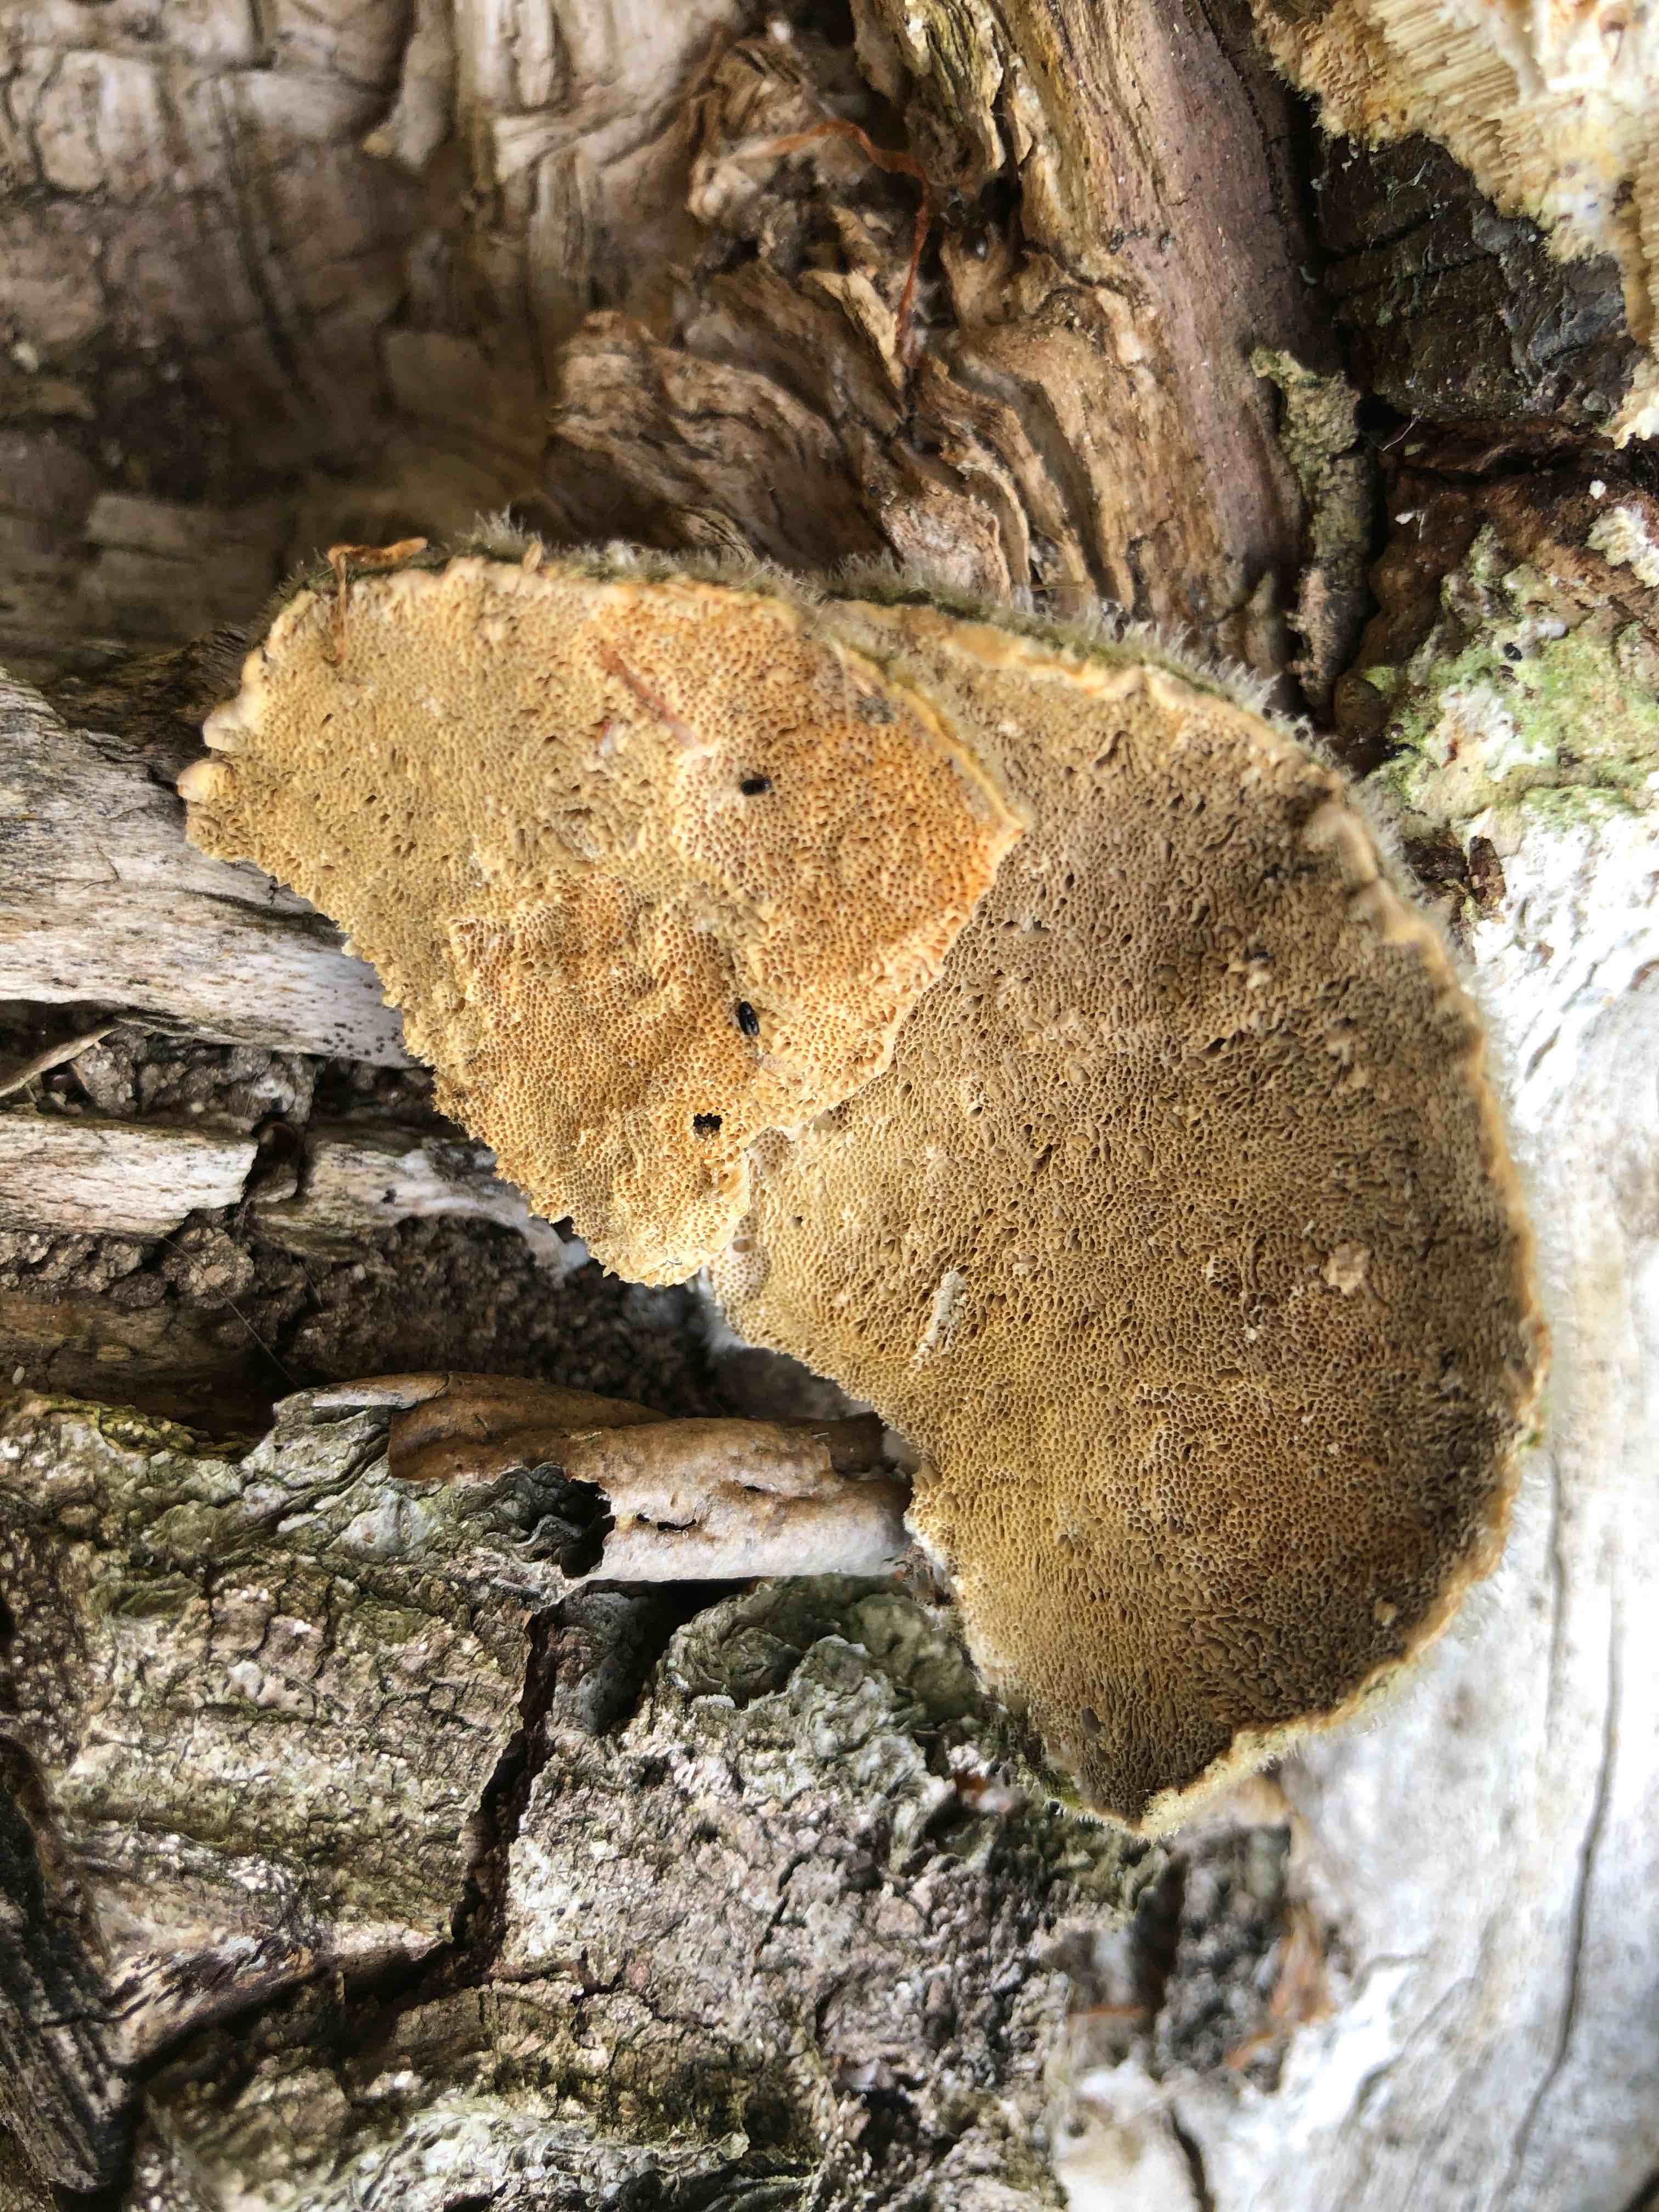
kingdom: Fungi
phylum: Basidiomycota
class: Agaricomycetes
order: Polyporales
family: Polyporaceae
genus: Trametes
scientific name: Trametes hirsuta
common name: håret læderporesvamp
